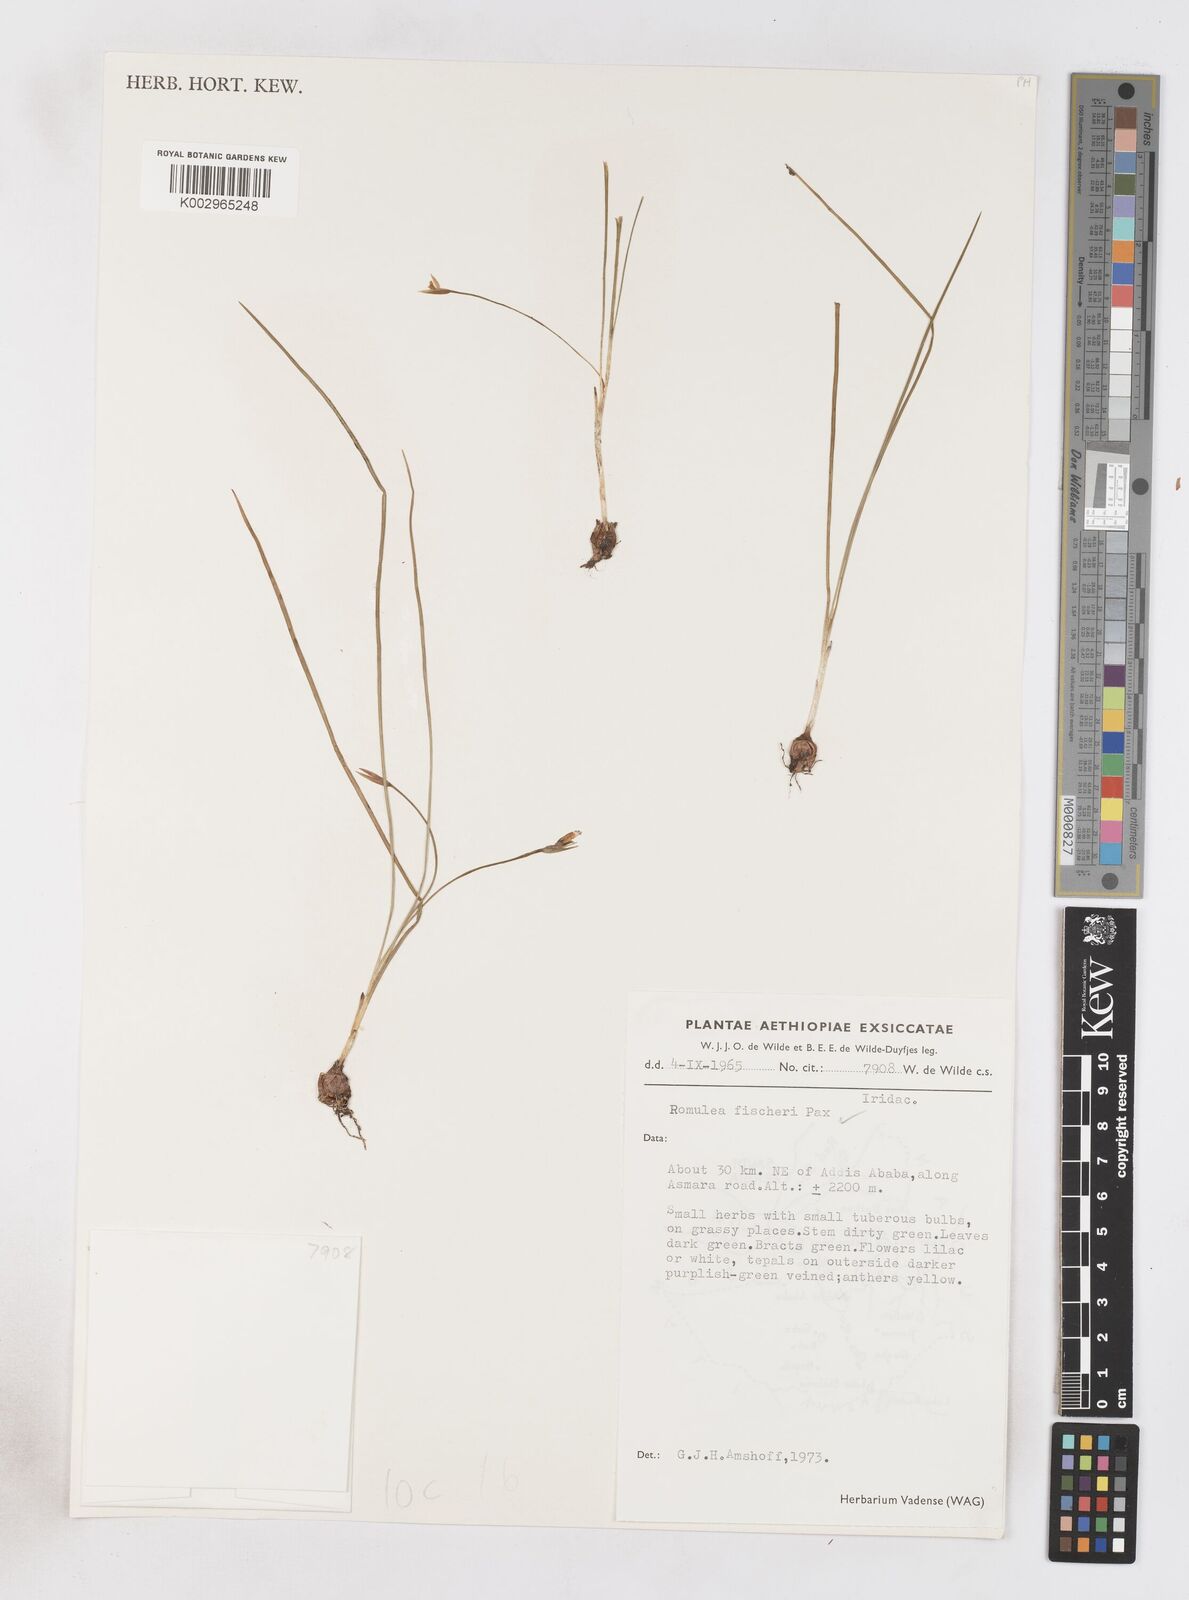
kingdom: Plantae
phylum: Tracheophyta
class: Liliopsida
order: Asparagales
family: Iridaceae
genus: Romulea
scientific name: Romulea fischeri
